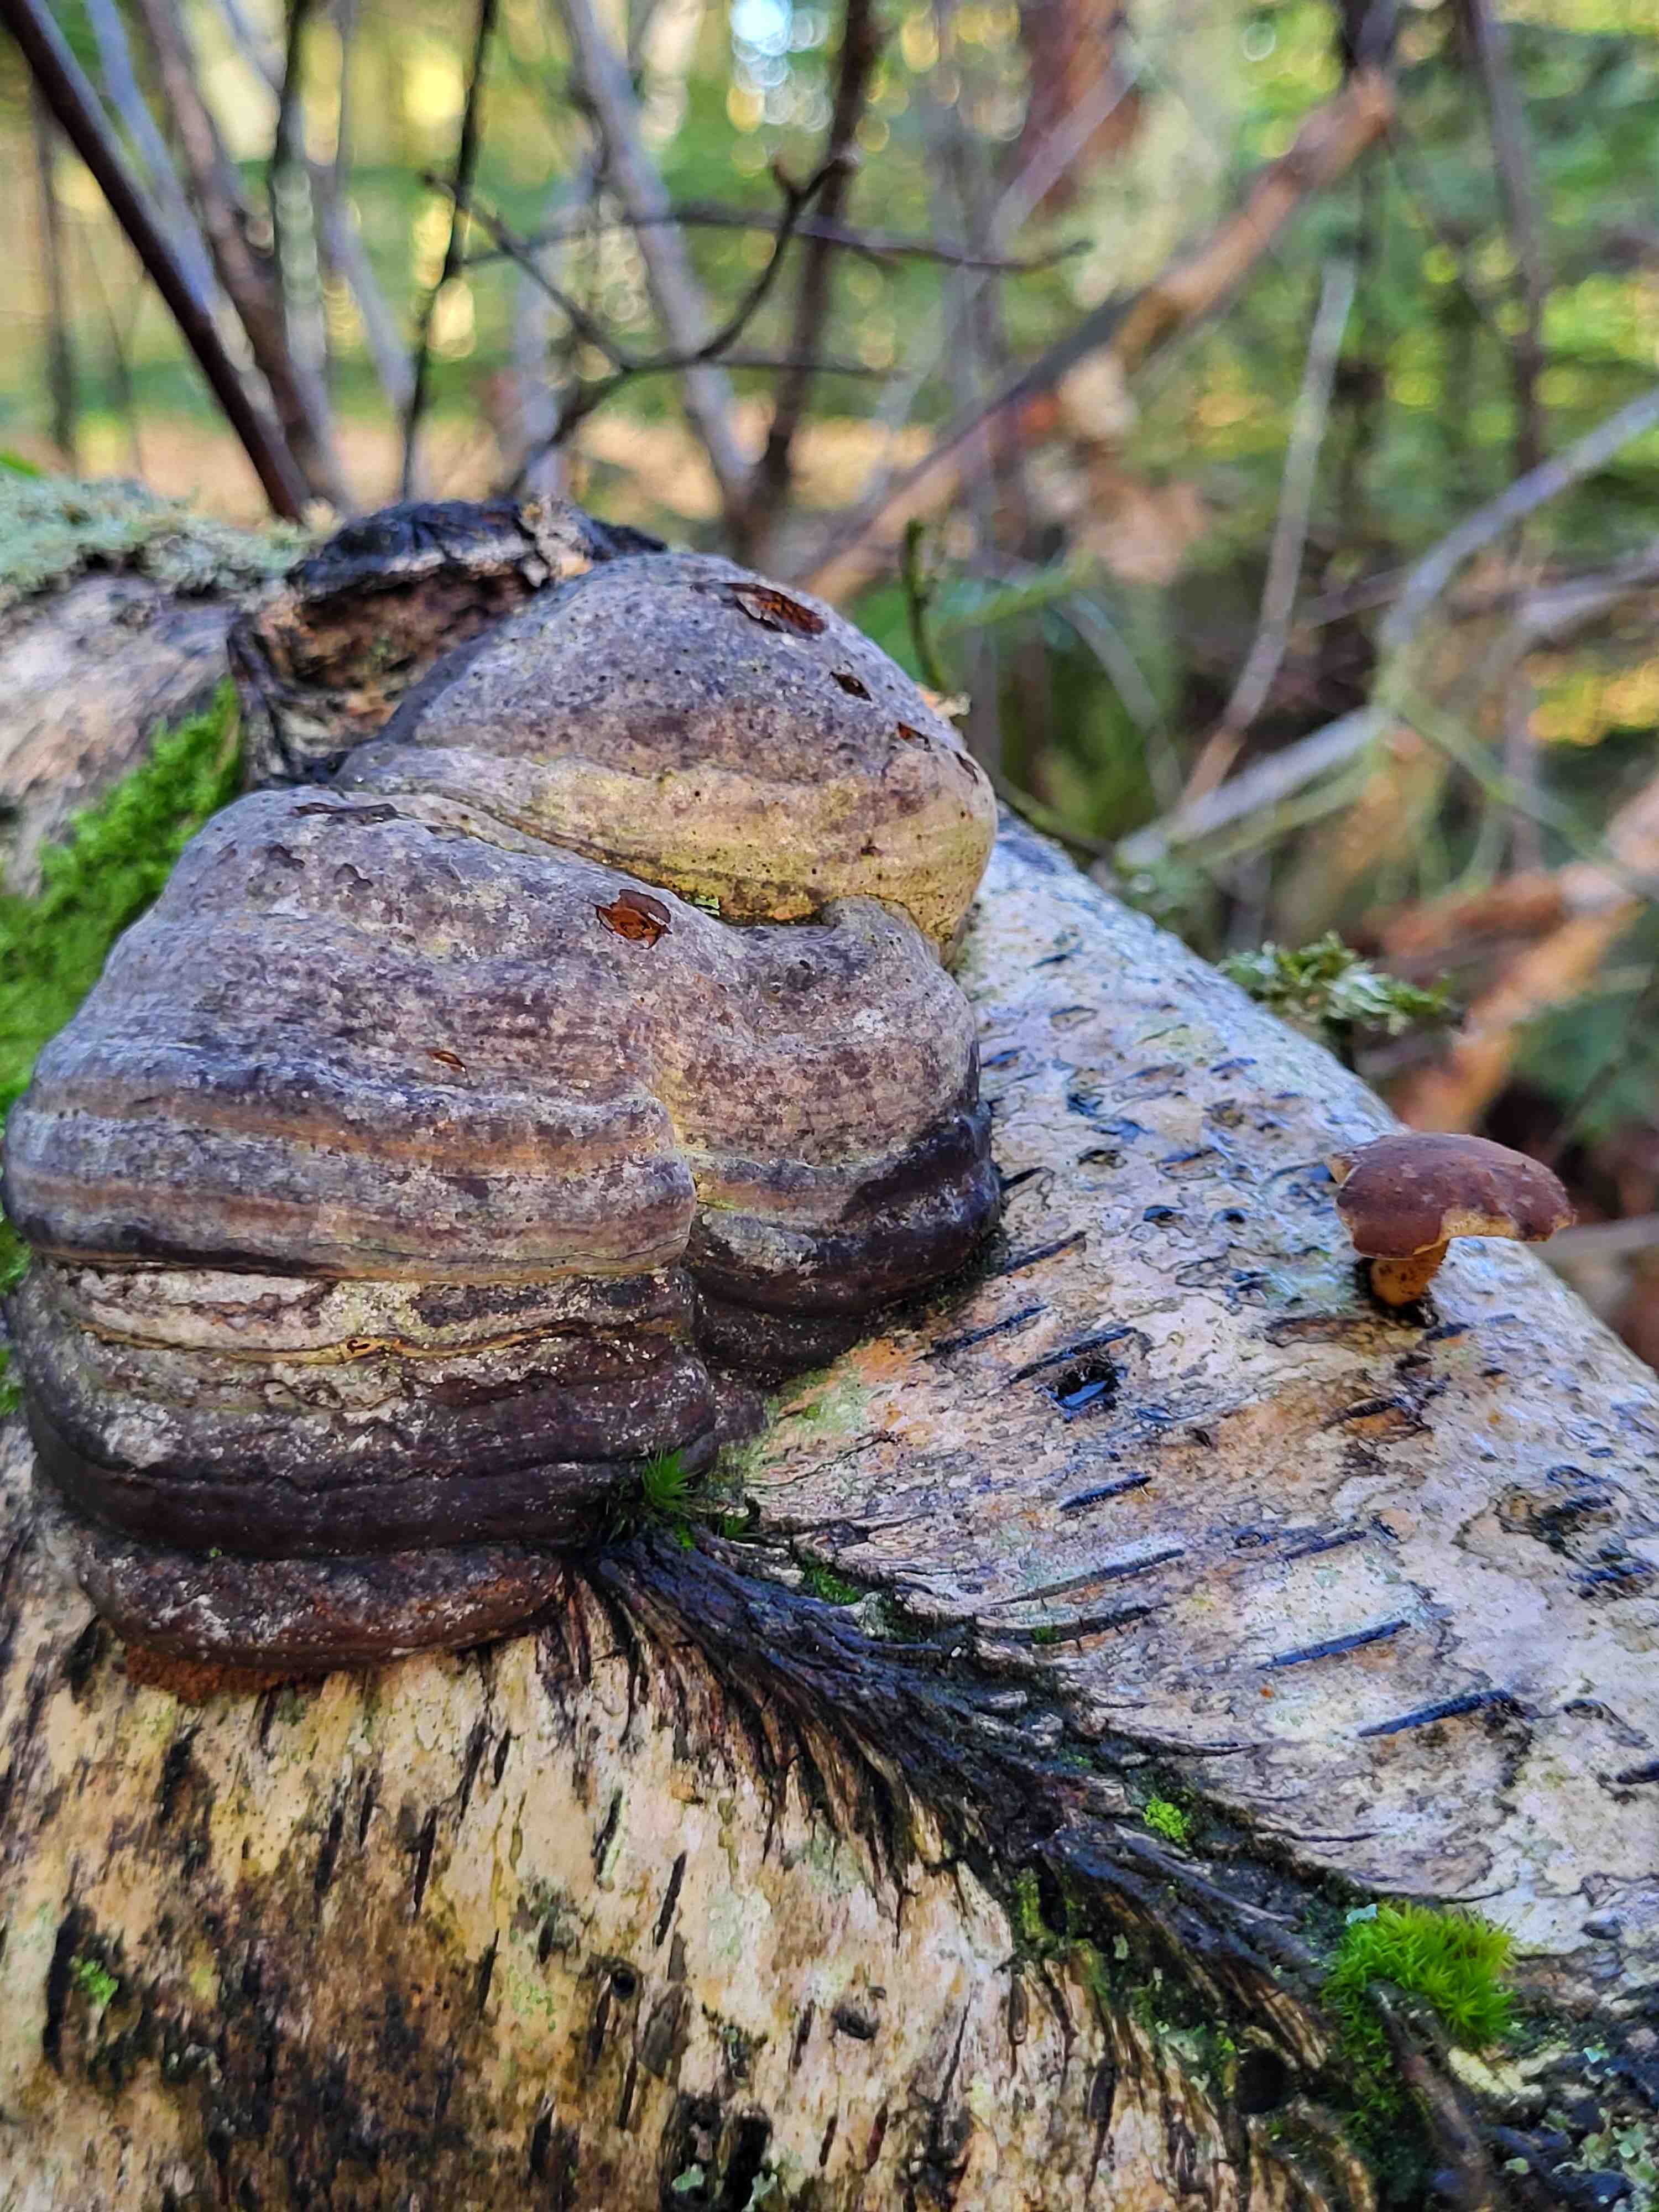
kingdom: Fungi
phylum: Basidiomycota
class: Agaricomycetes
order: Polyporales
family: Polyporaceae
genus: Lentinus
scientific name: Lentinus brumalis
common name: vinter-stilkporesvamp
